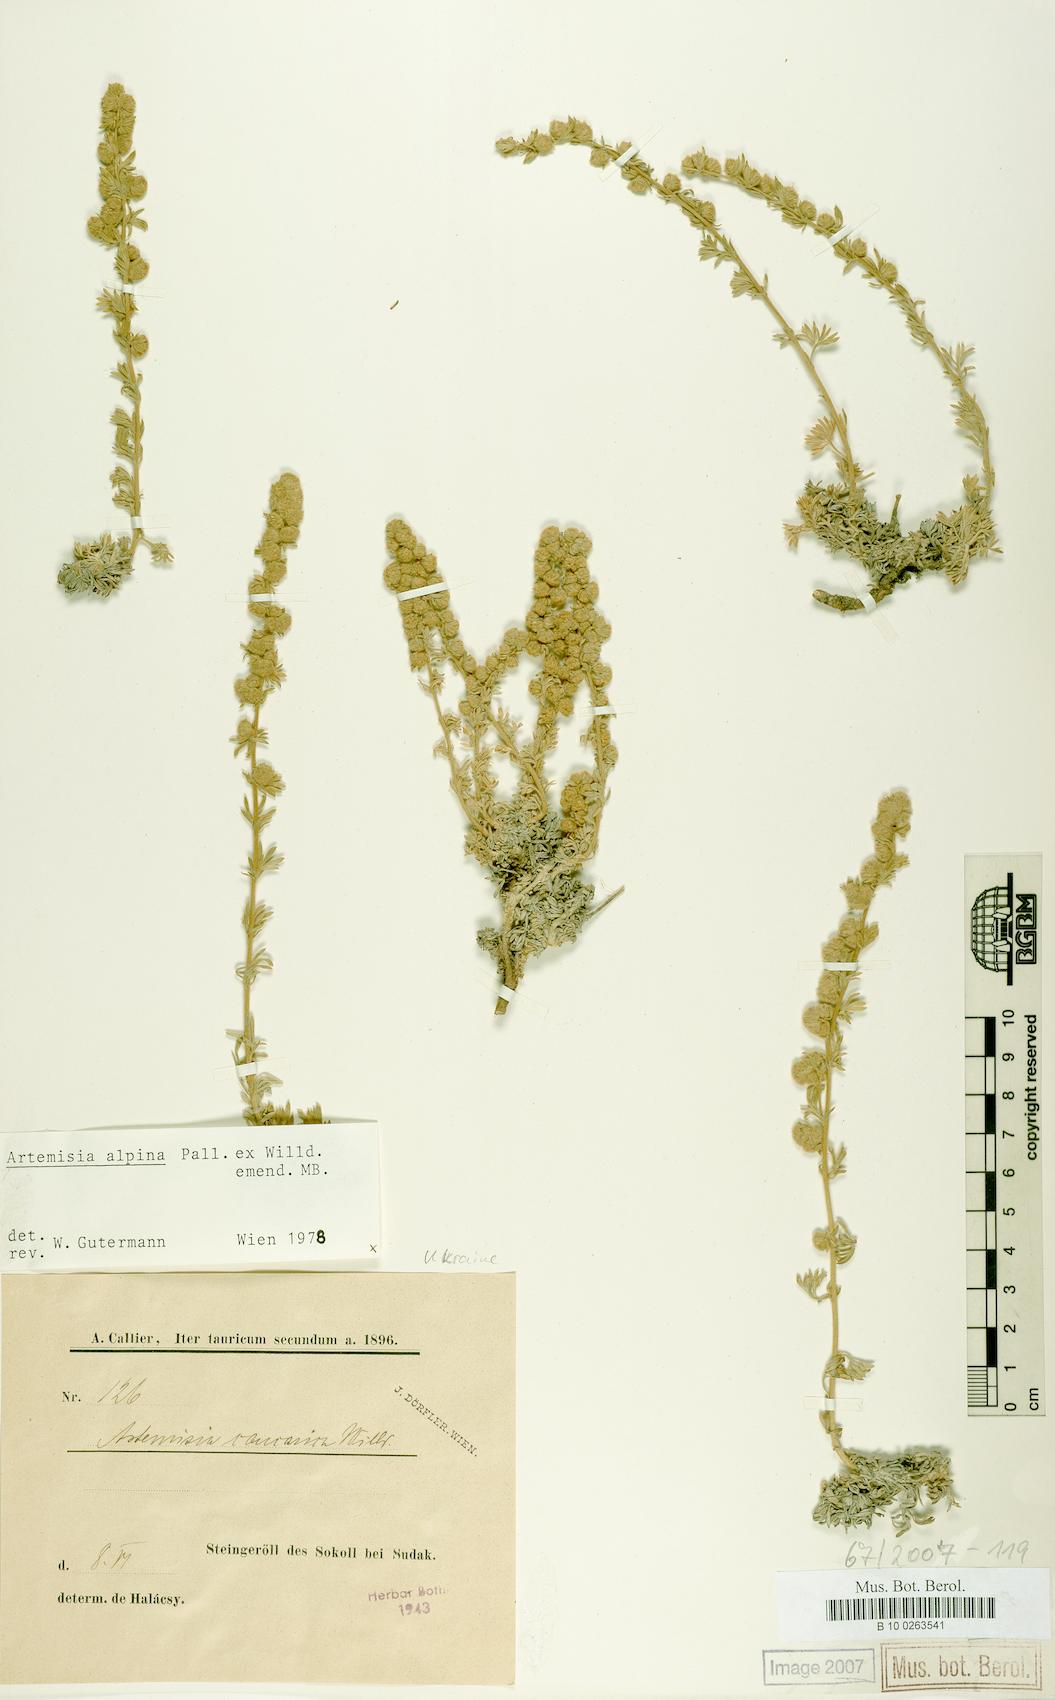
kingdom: Plantae
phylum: Tracheophyta
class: Magnoliopsida
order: Asterales
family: Asteraceae
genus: Artemisia
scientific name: Artemisia alpina
